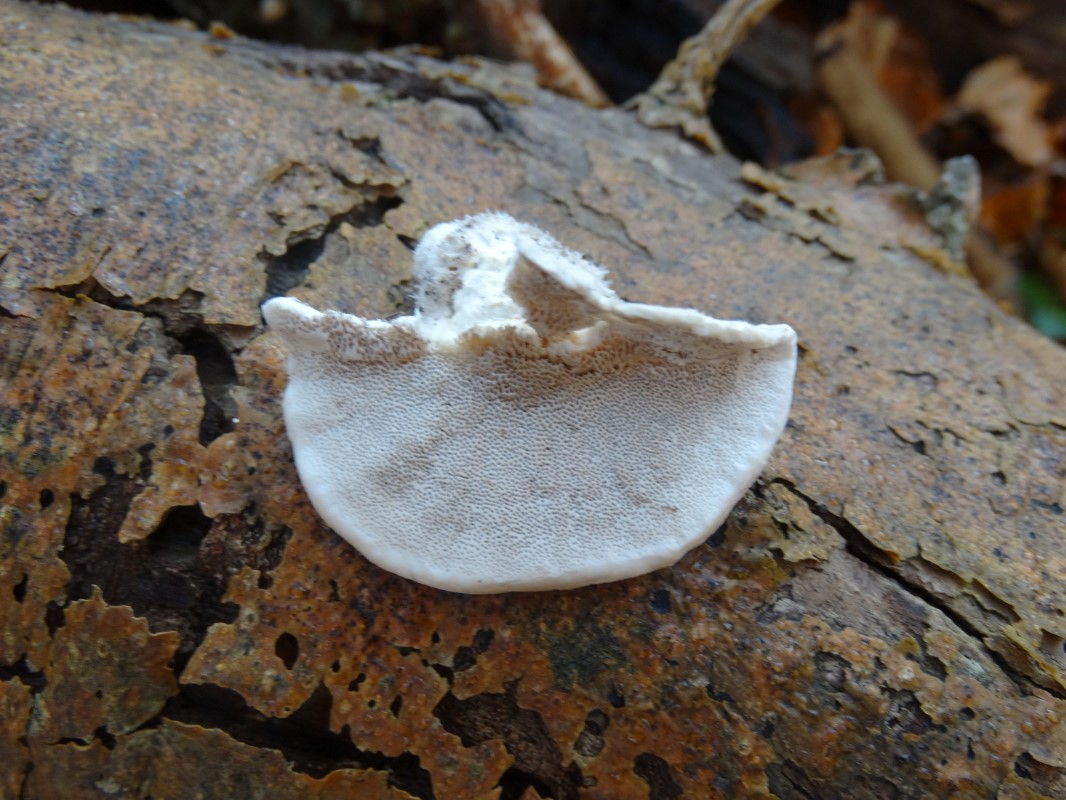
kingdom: Fungi
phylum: Basidiomycota
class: Agaricomycetes
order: Polyporales
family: Polyporaceae
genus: Trametes
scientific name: Trametes hirsuta
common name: håret læderporesvamp
